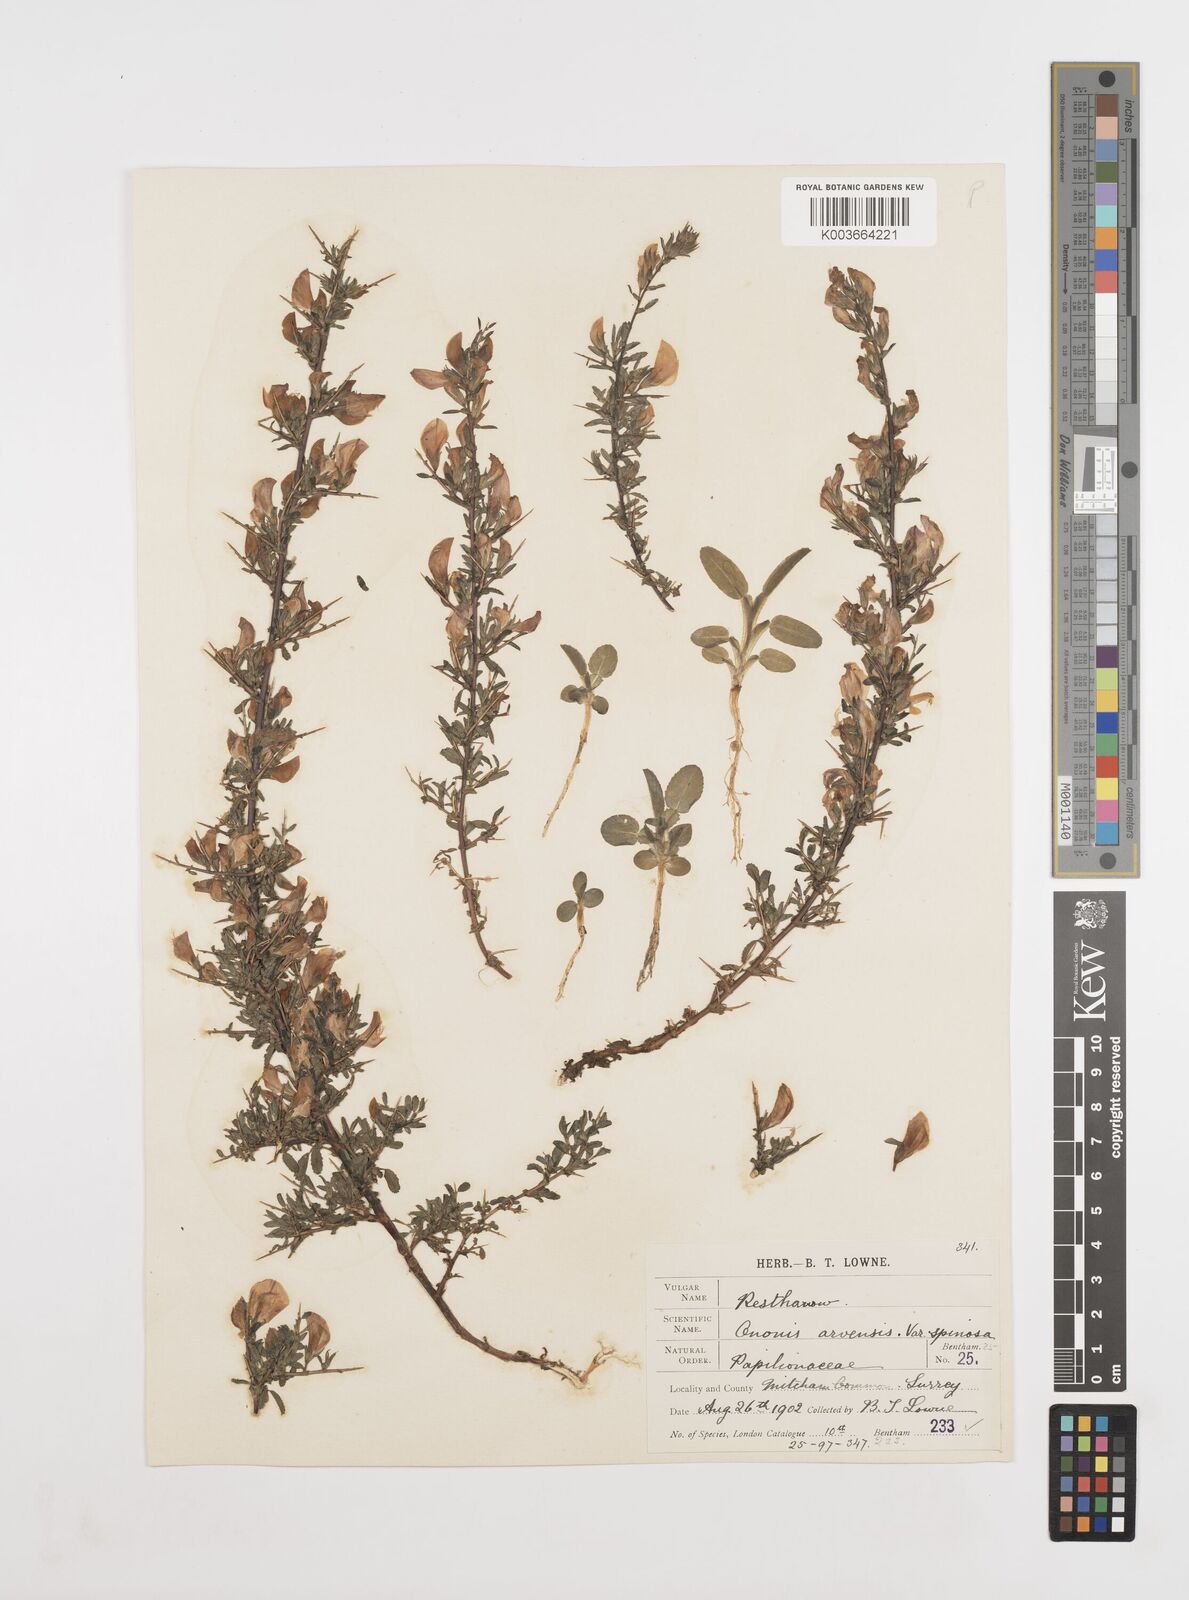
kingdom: Plantae
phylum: Tracheophyta
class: Magnoliopsida
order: Fabales
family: Fabaceae
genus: Ononis
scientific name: Ononis spinosa
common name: Spiny restharrow
